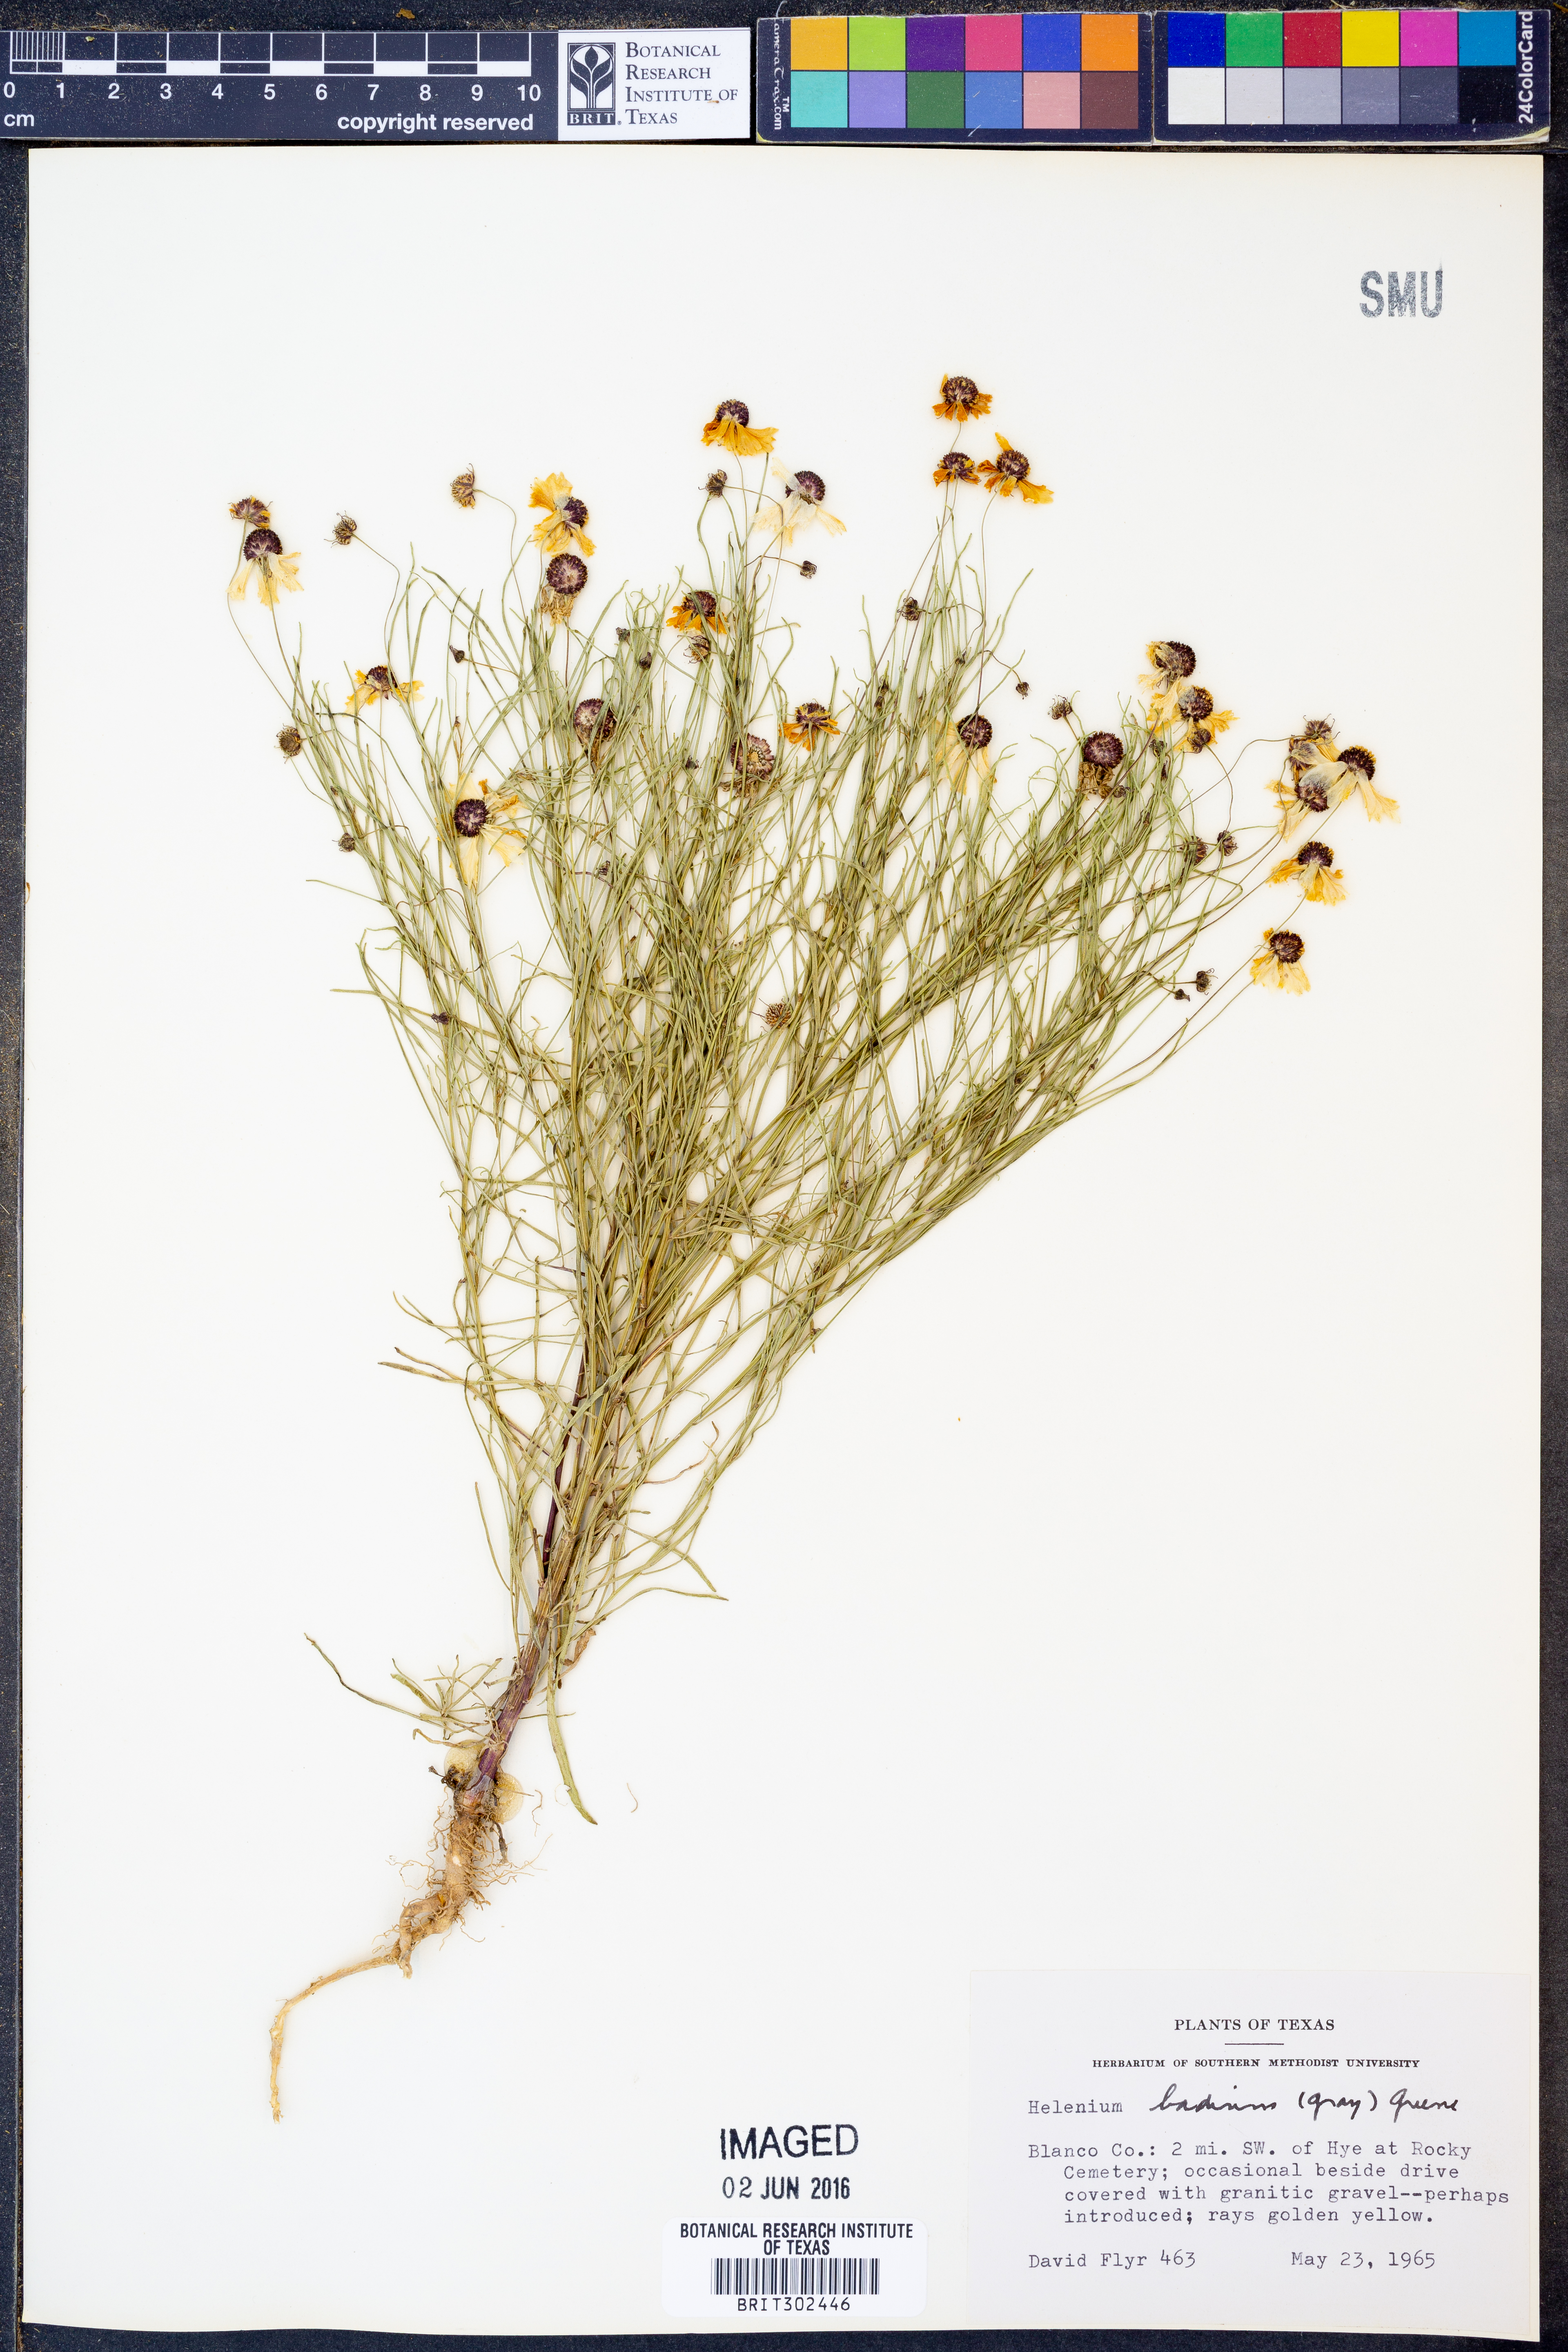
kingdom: Plantae
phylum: Tracheophyta
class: Magnoliopsida
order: Asterales
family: Asteraceae
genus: Helenium
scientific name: Helenium amarum
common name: Bitter sneezeweed
